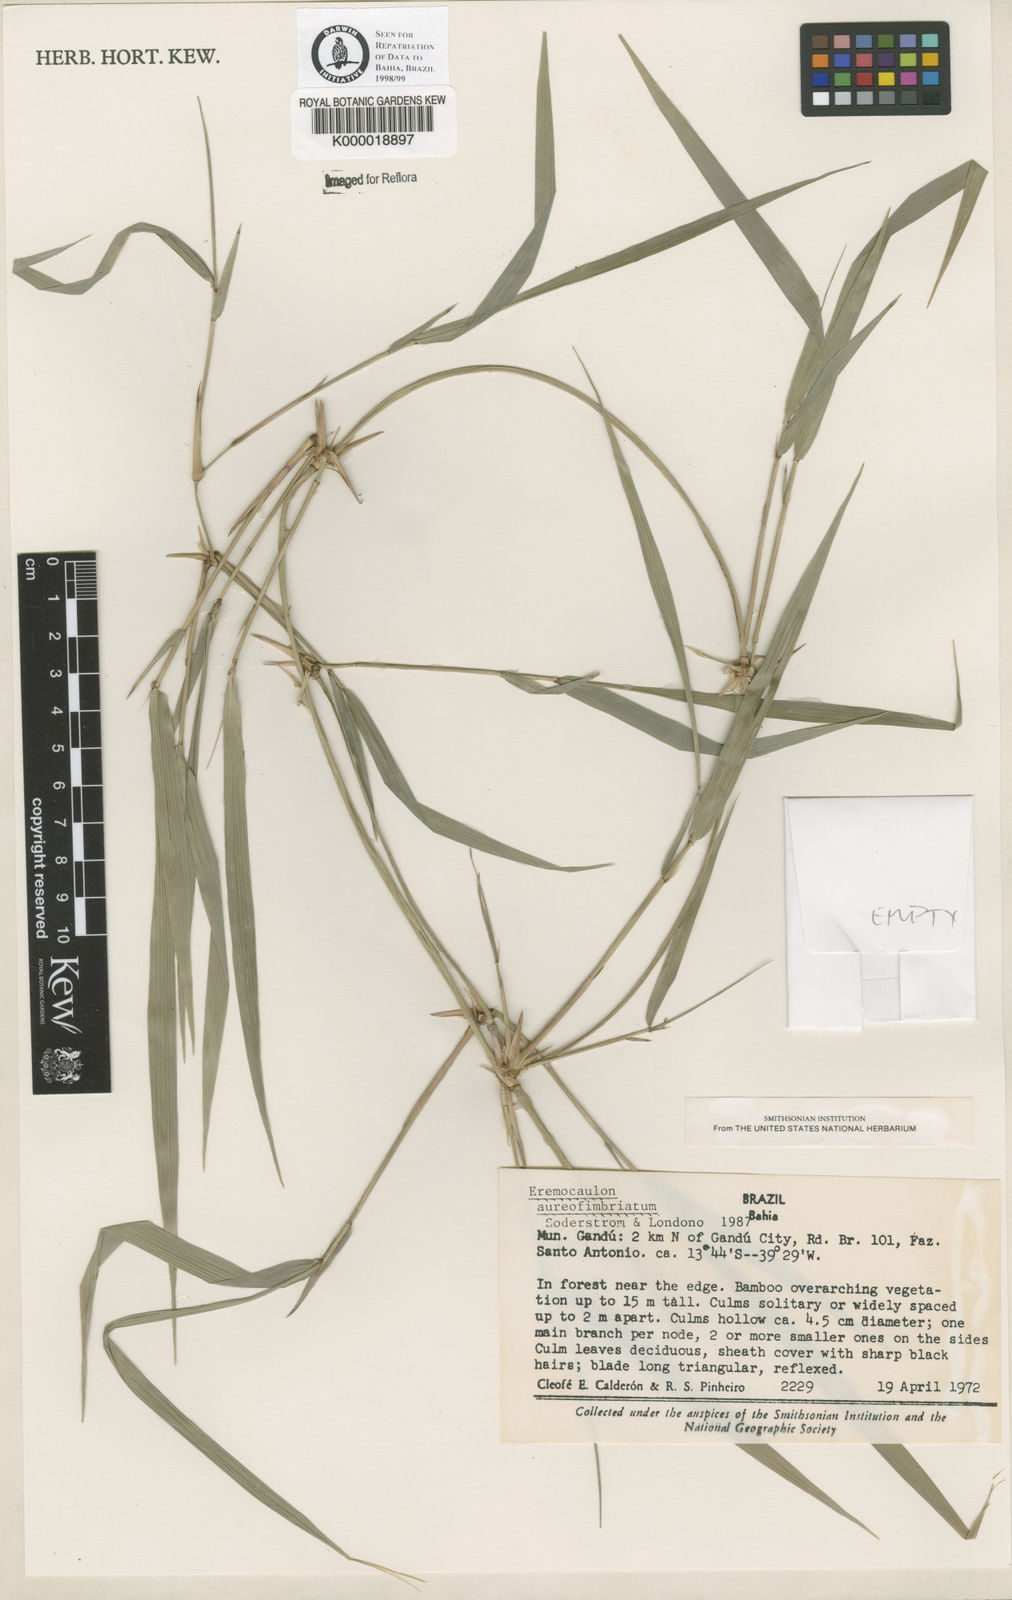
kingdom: Plantae
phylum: Tracheophyta
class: Liliopsida
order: Poales
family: Poaceae
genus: Eremocaulon
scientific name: Eremocaulon
